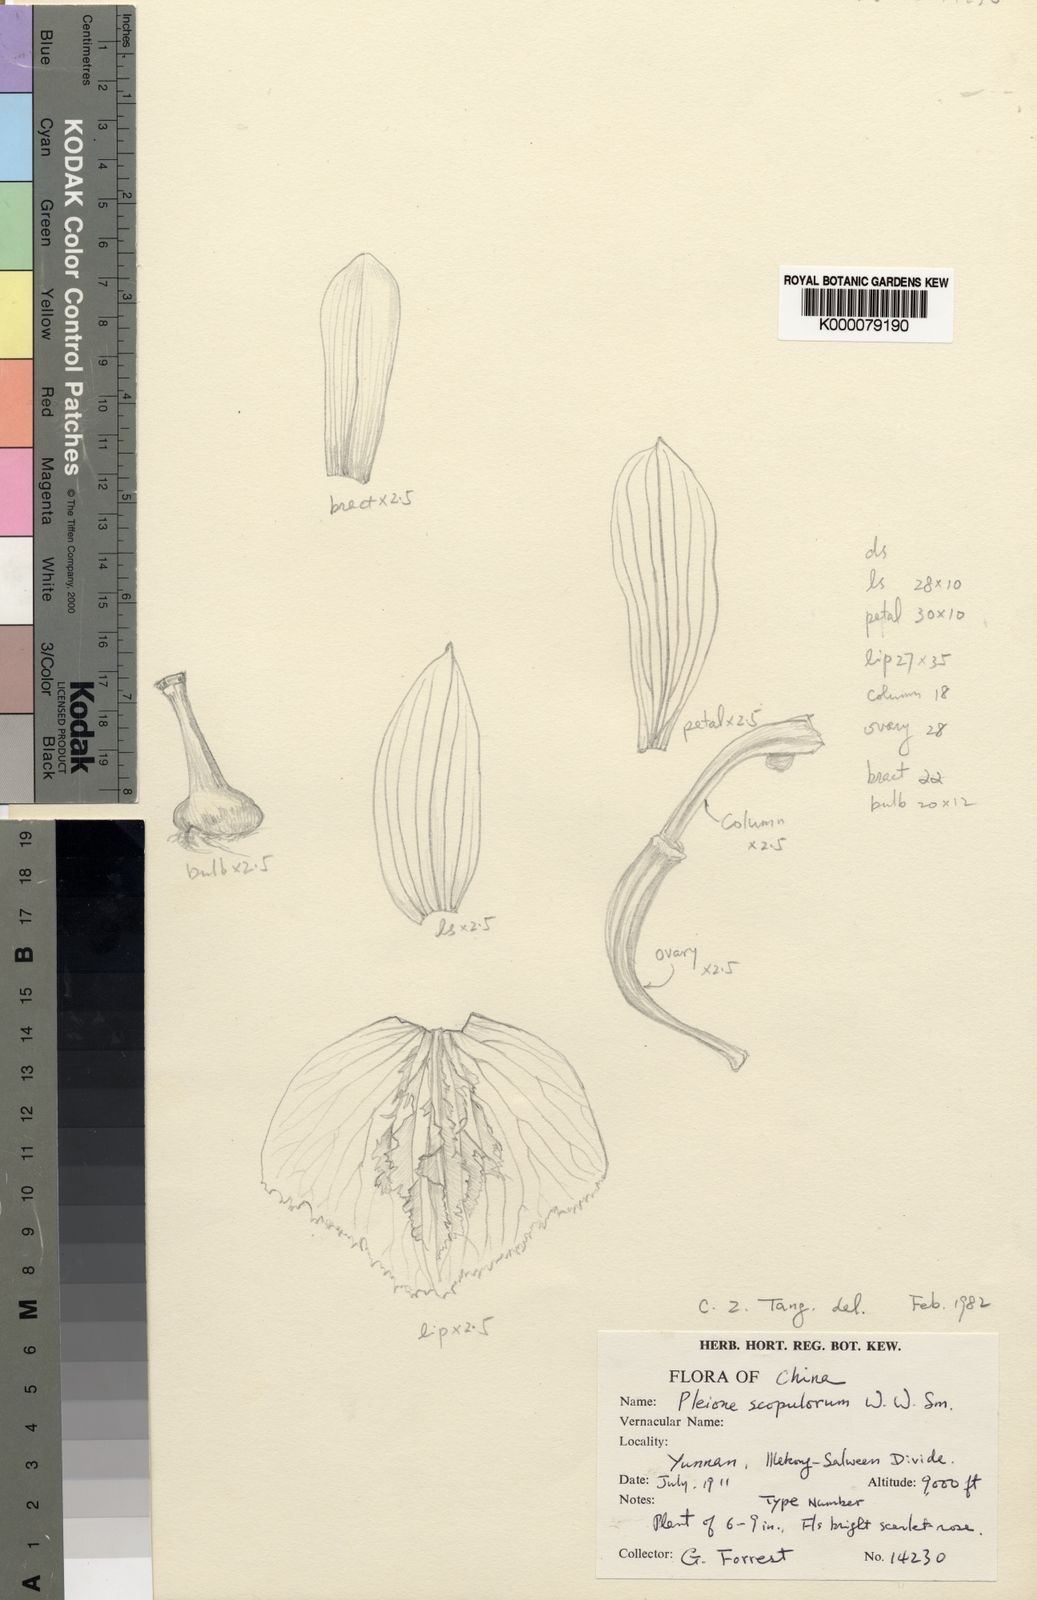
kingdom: Plantae
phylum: Tracheophyta
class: Liliopsida
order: Asparagales
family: Orchidaceae
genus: Pleione
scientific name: Pleione scopulorum
